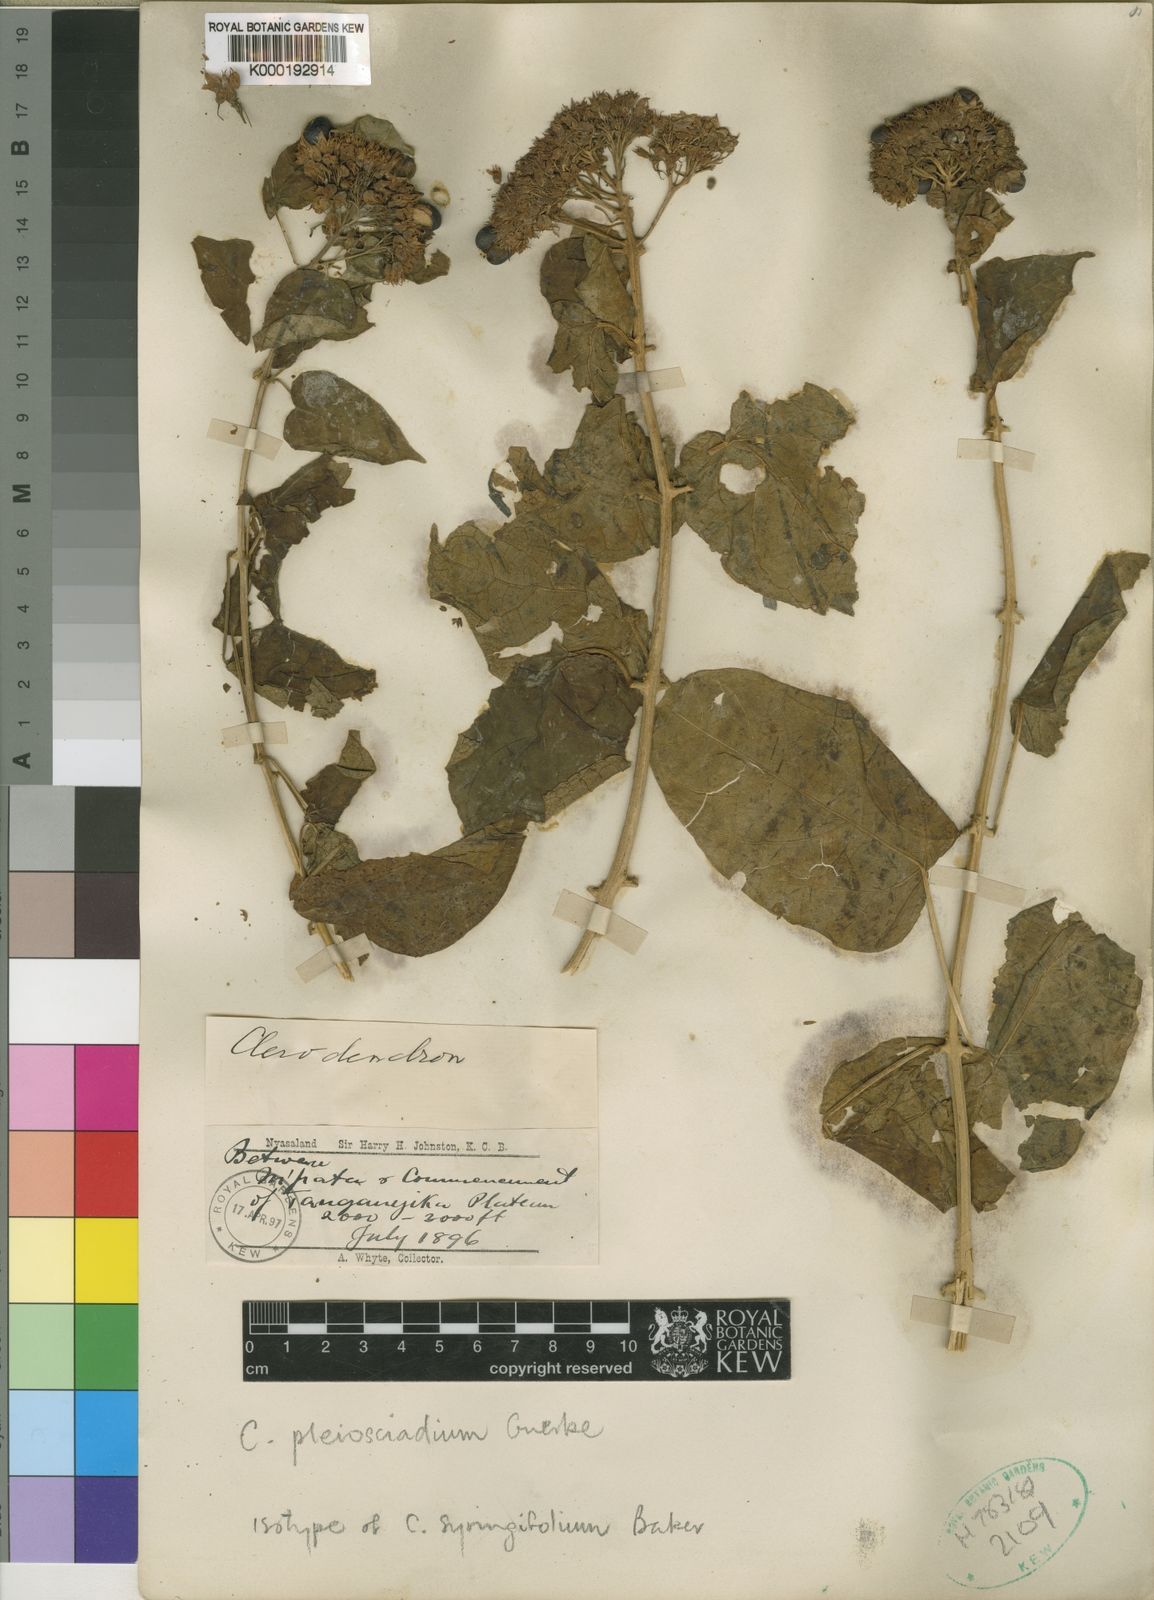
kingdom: Plantae
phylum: Tracheophyta
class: Magnoliopsida
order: Lamiales
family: Lamiaceae
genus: Clerodendrum
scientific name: Clerodendrum
